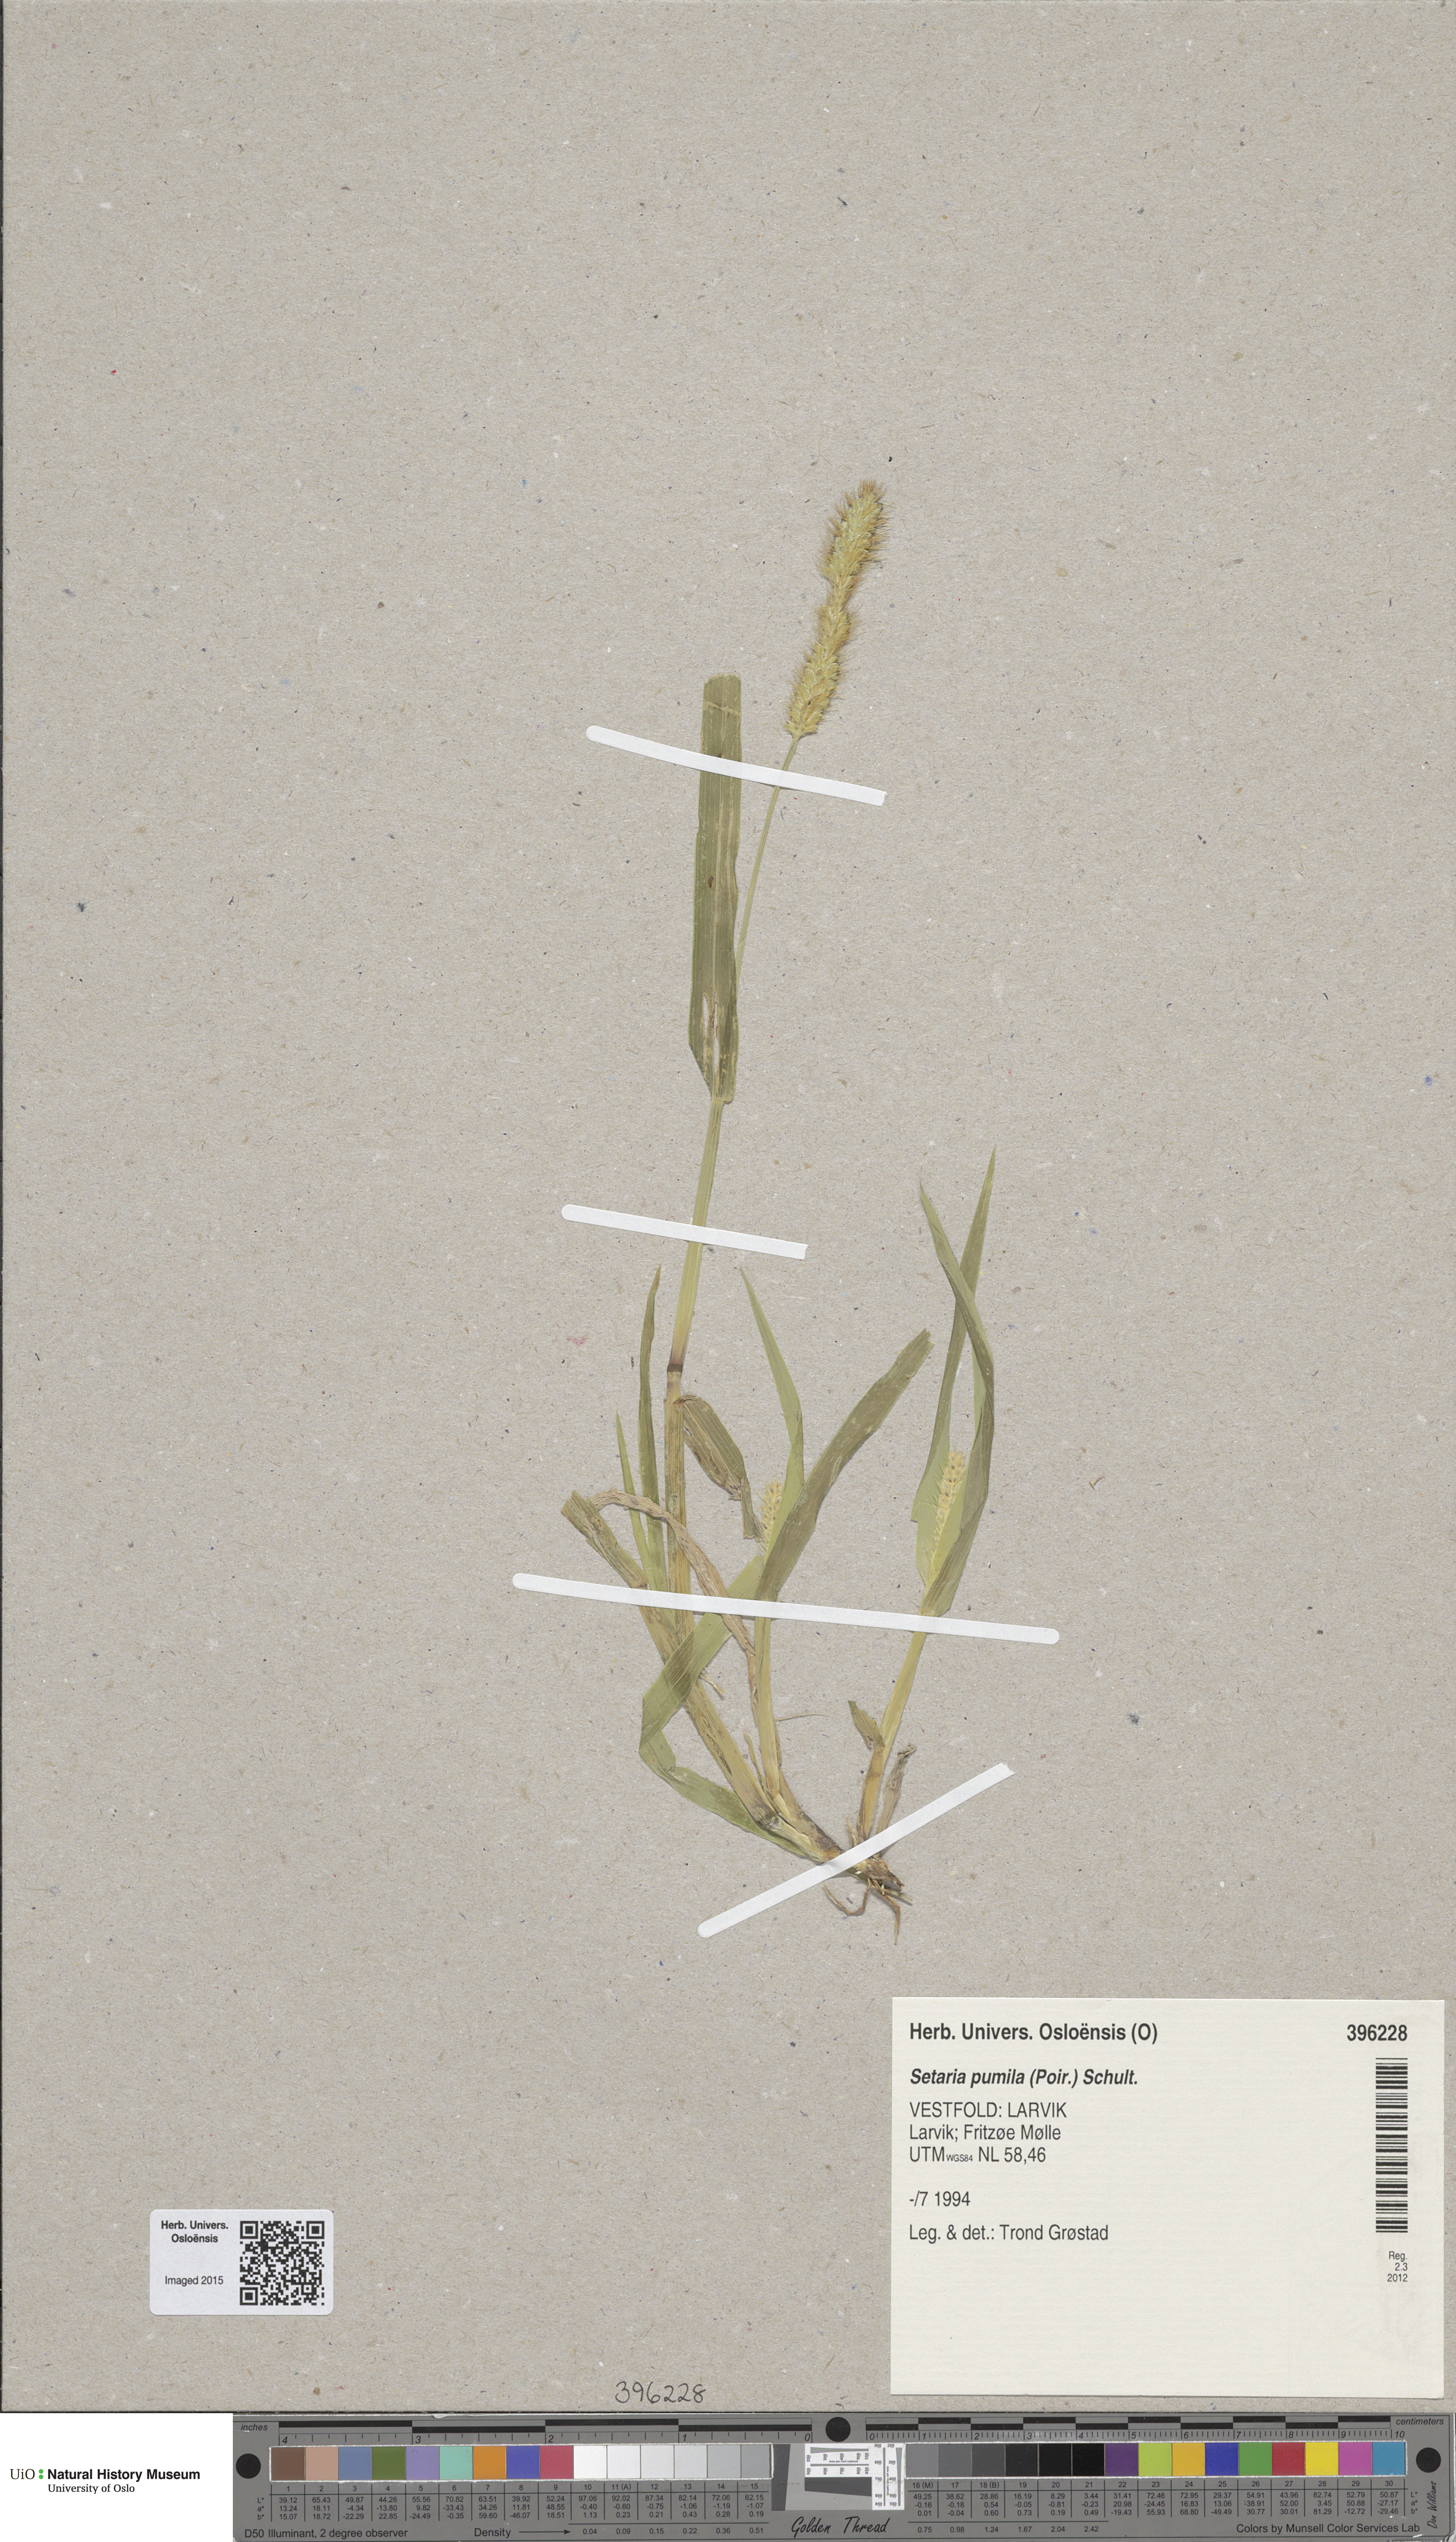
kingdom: Plantae
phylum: Tracheophyta
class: Liliopsida
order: Poales
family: Poaceae
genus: Setaria
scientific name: Setaria pumila
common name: Yellow bristle-grass
